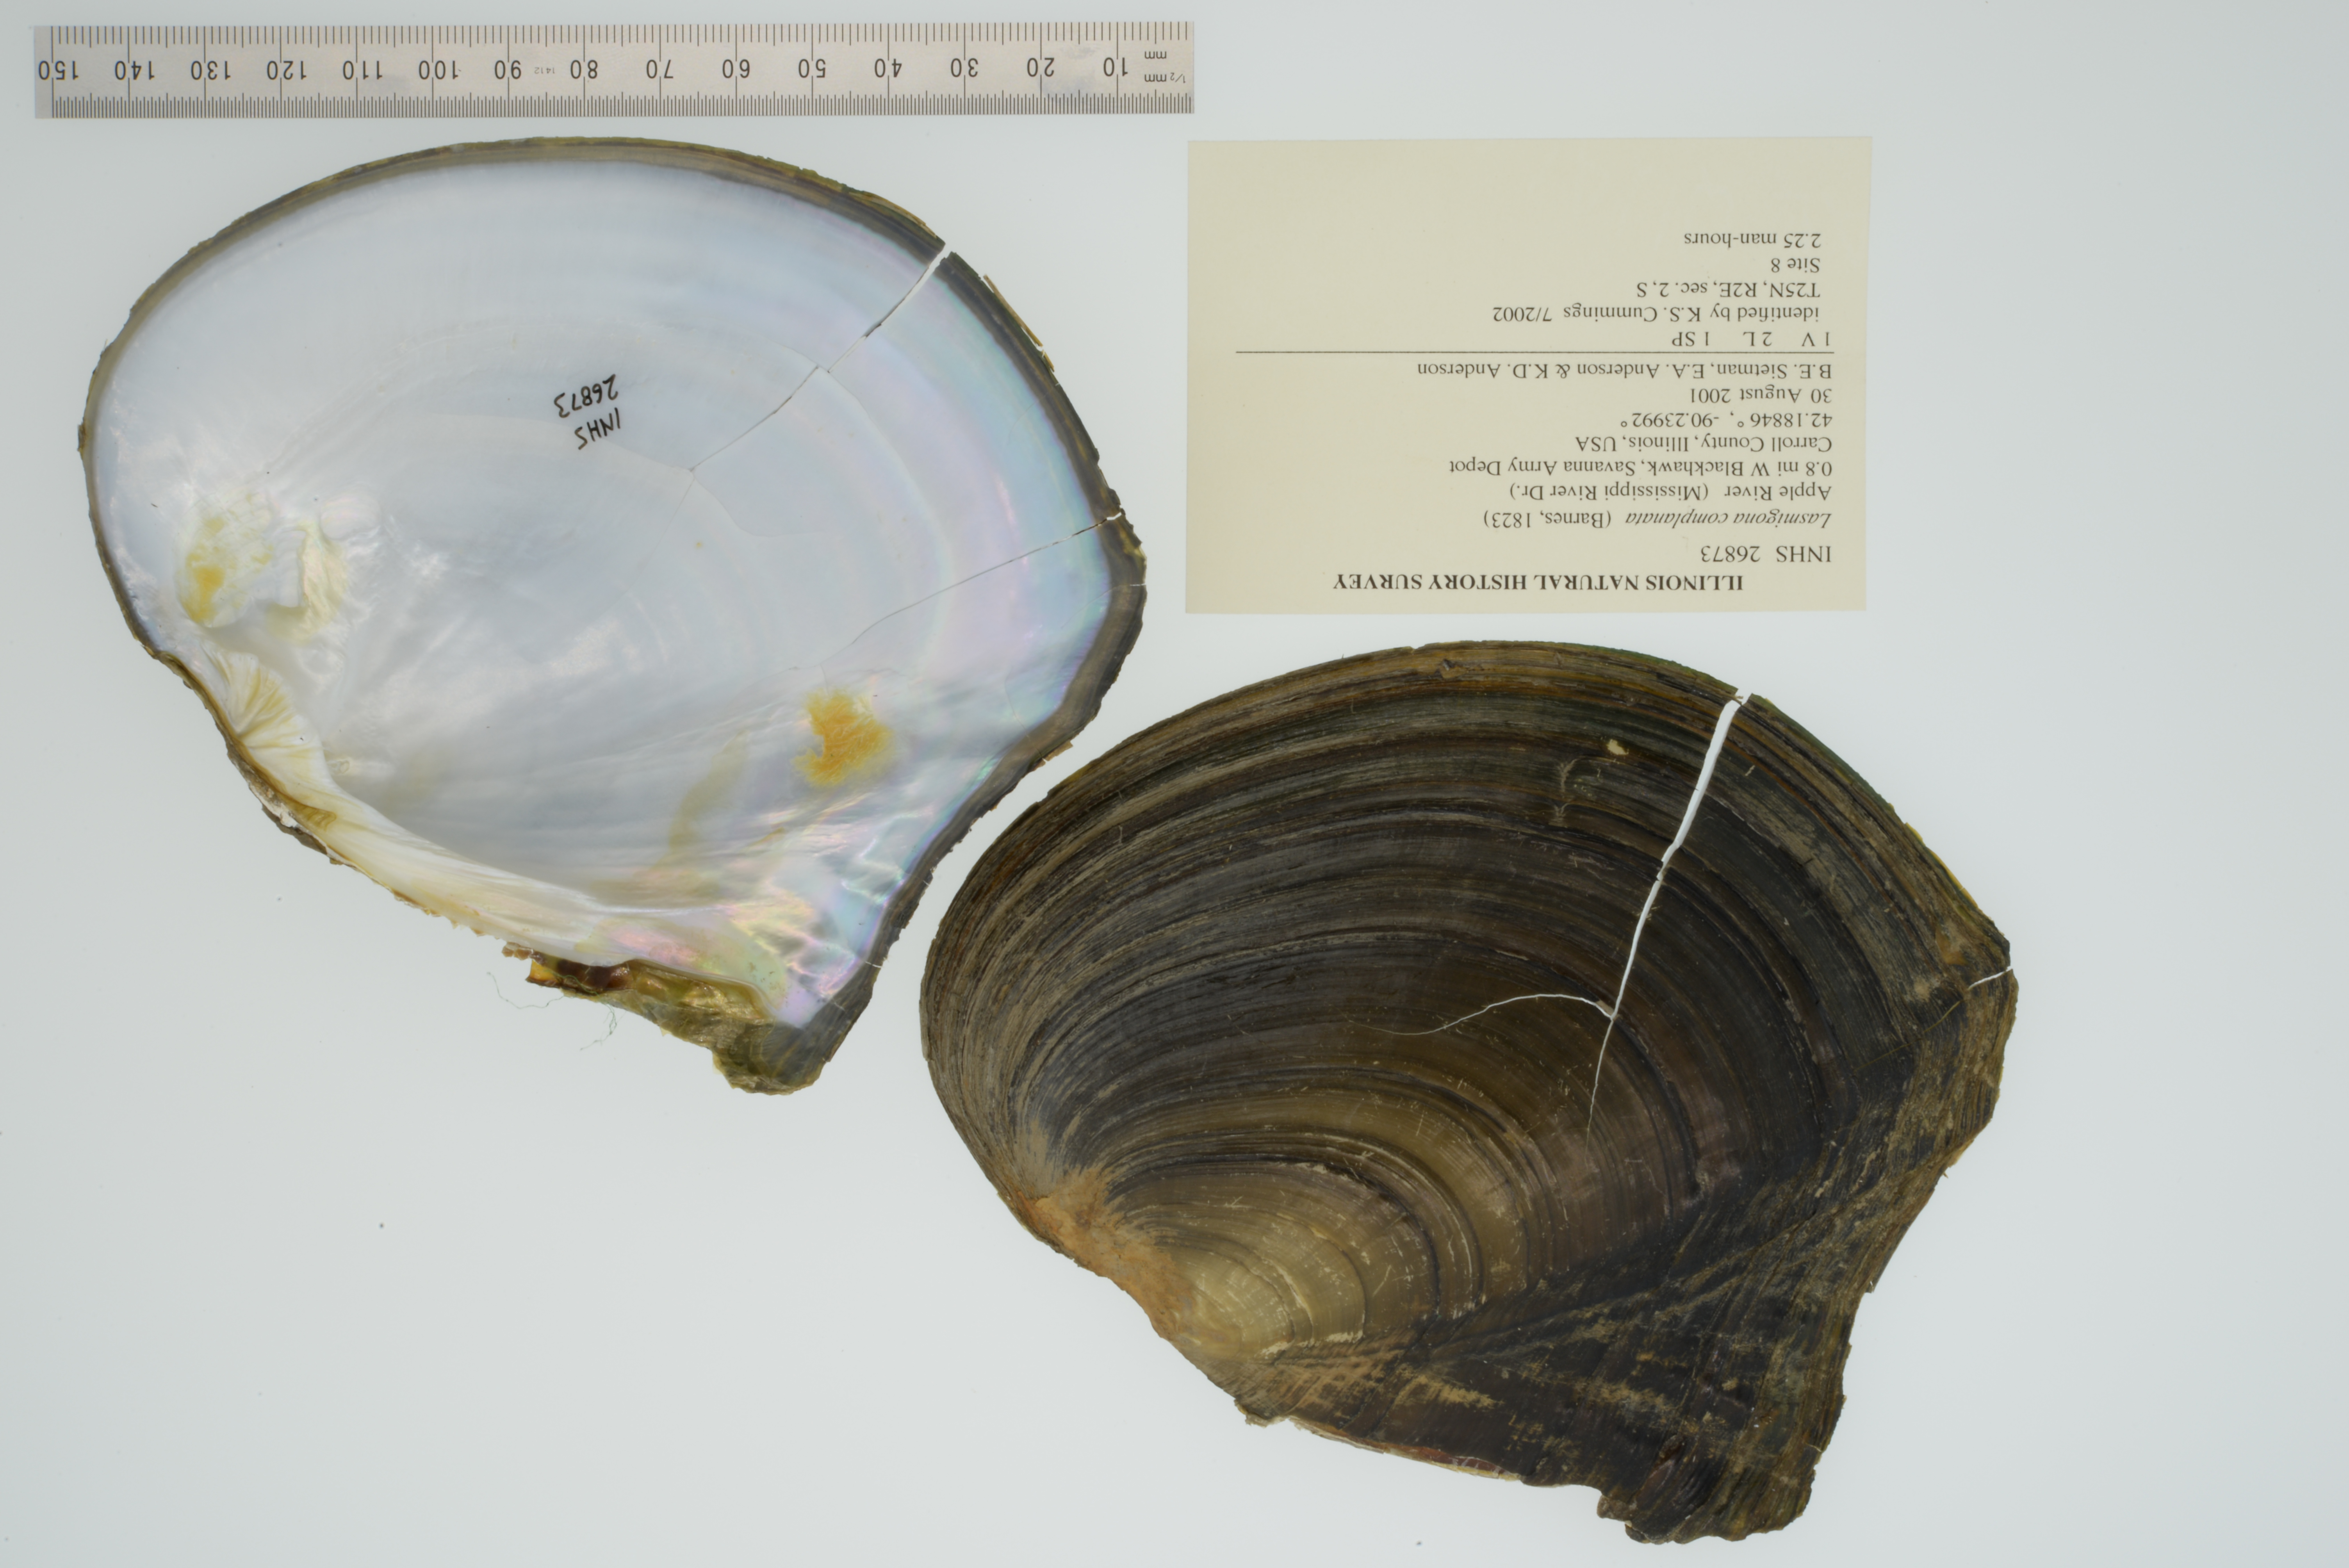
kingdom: Animalia
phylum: Mollusca
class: Bivalvia
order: Unionida
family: Unionidae
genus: Lasmigona
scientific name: Lasmigona complanata
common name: White heelsplitter
